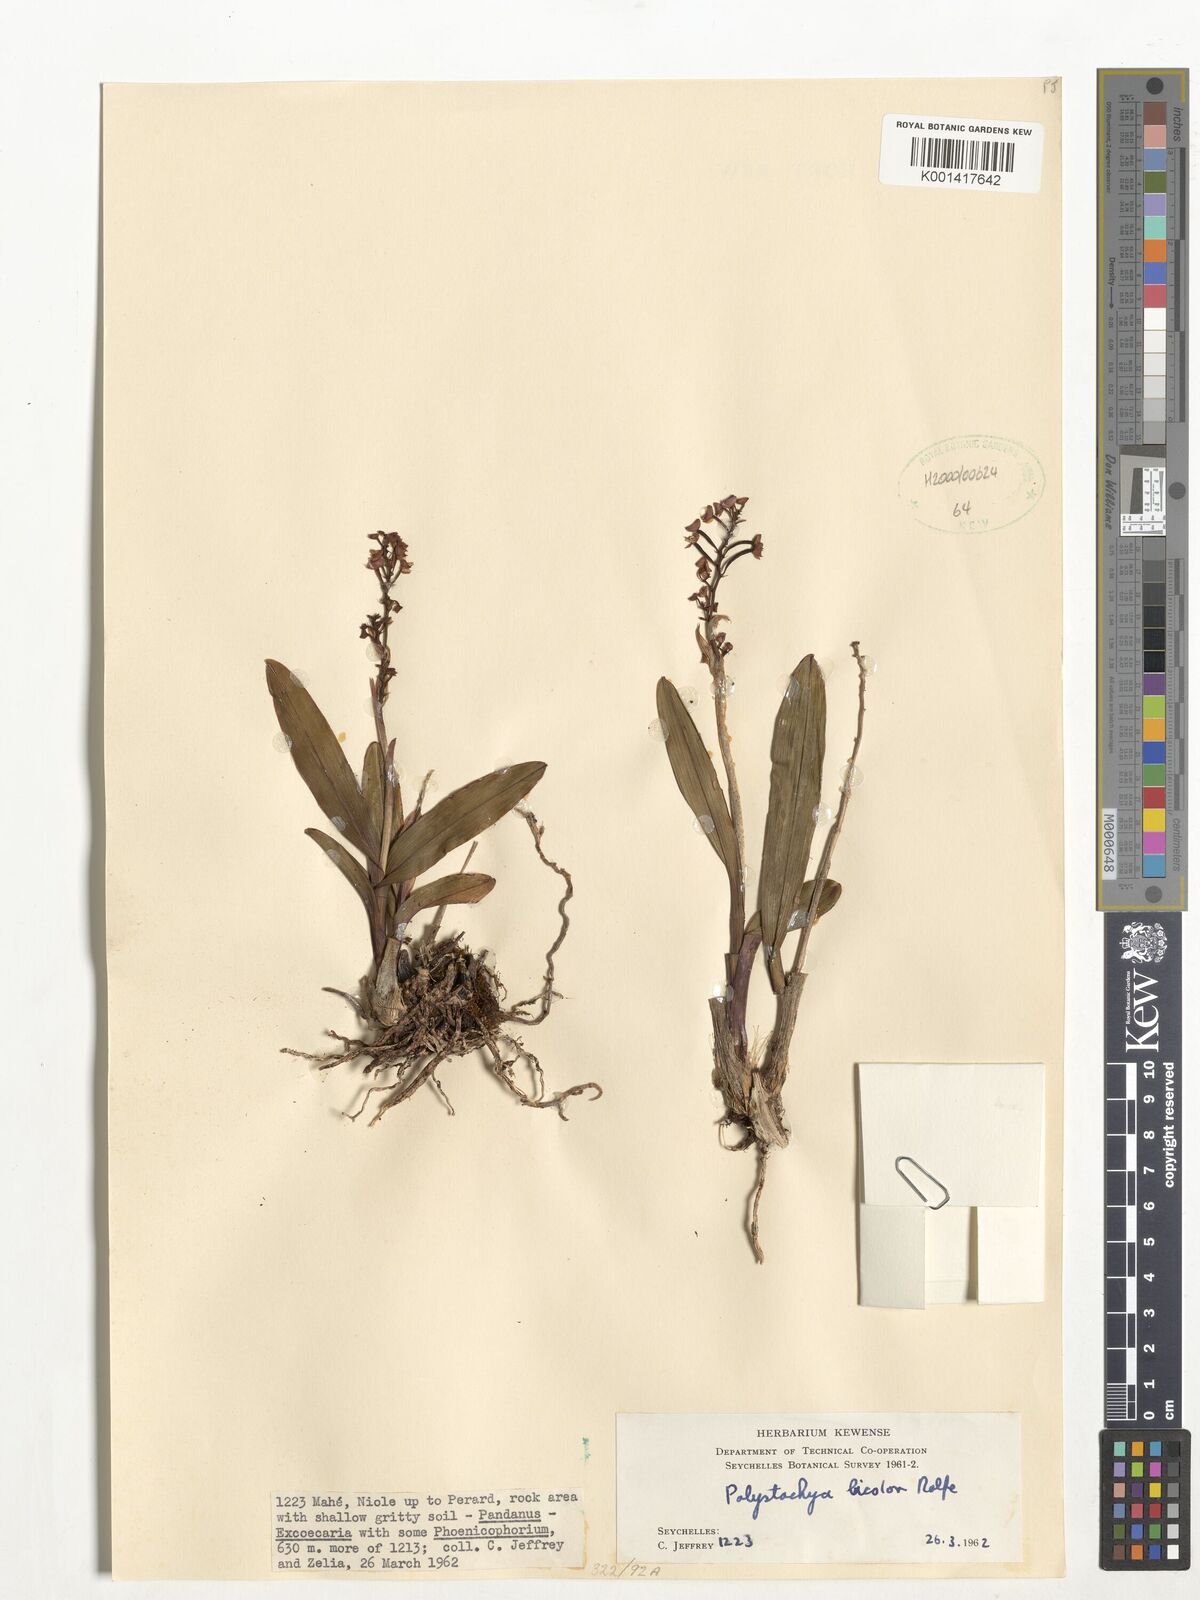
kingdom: Plantae
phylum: Tracheophyta
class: Liliopsida
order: Asparagales
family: Orchidaceae
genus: Polystachya
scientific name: Polystachya rosea
